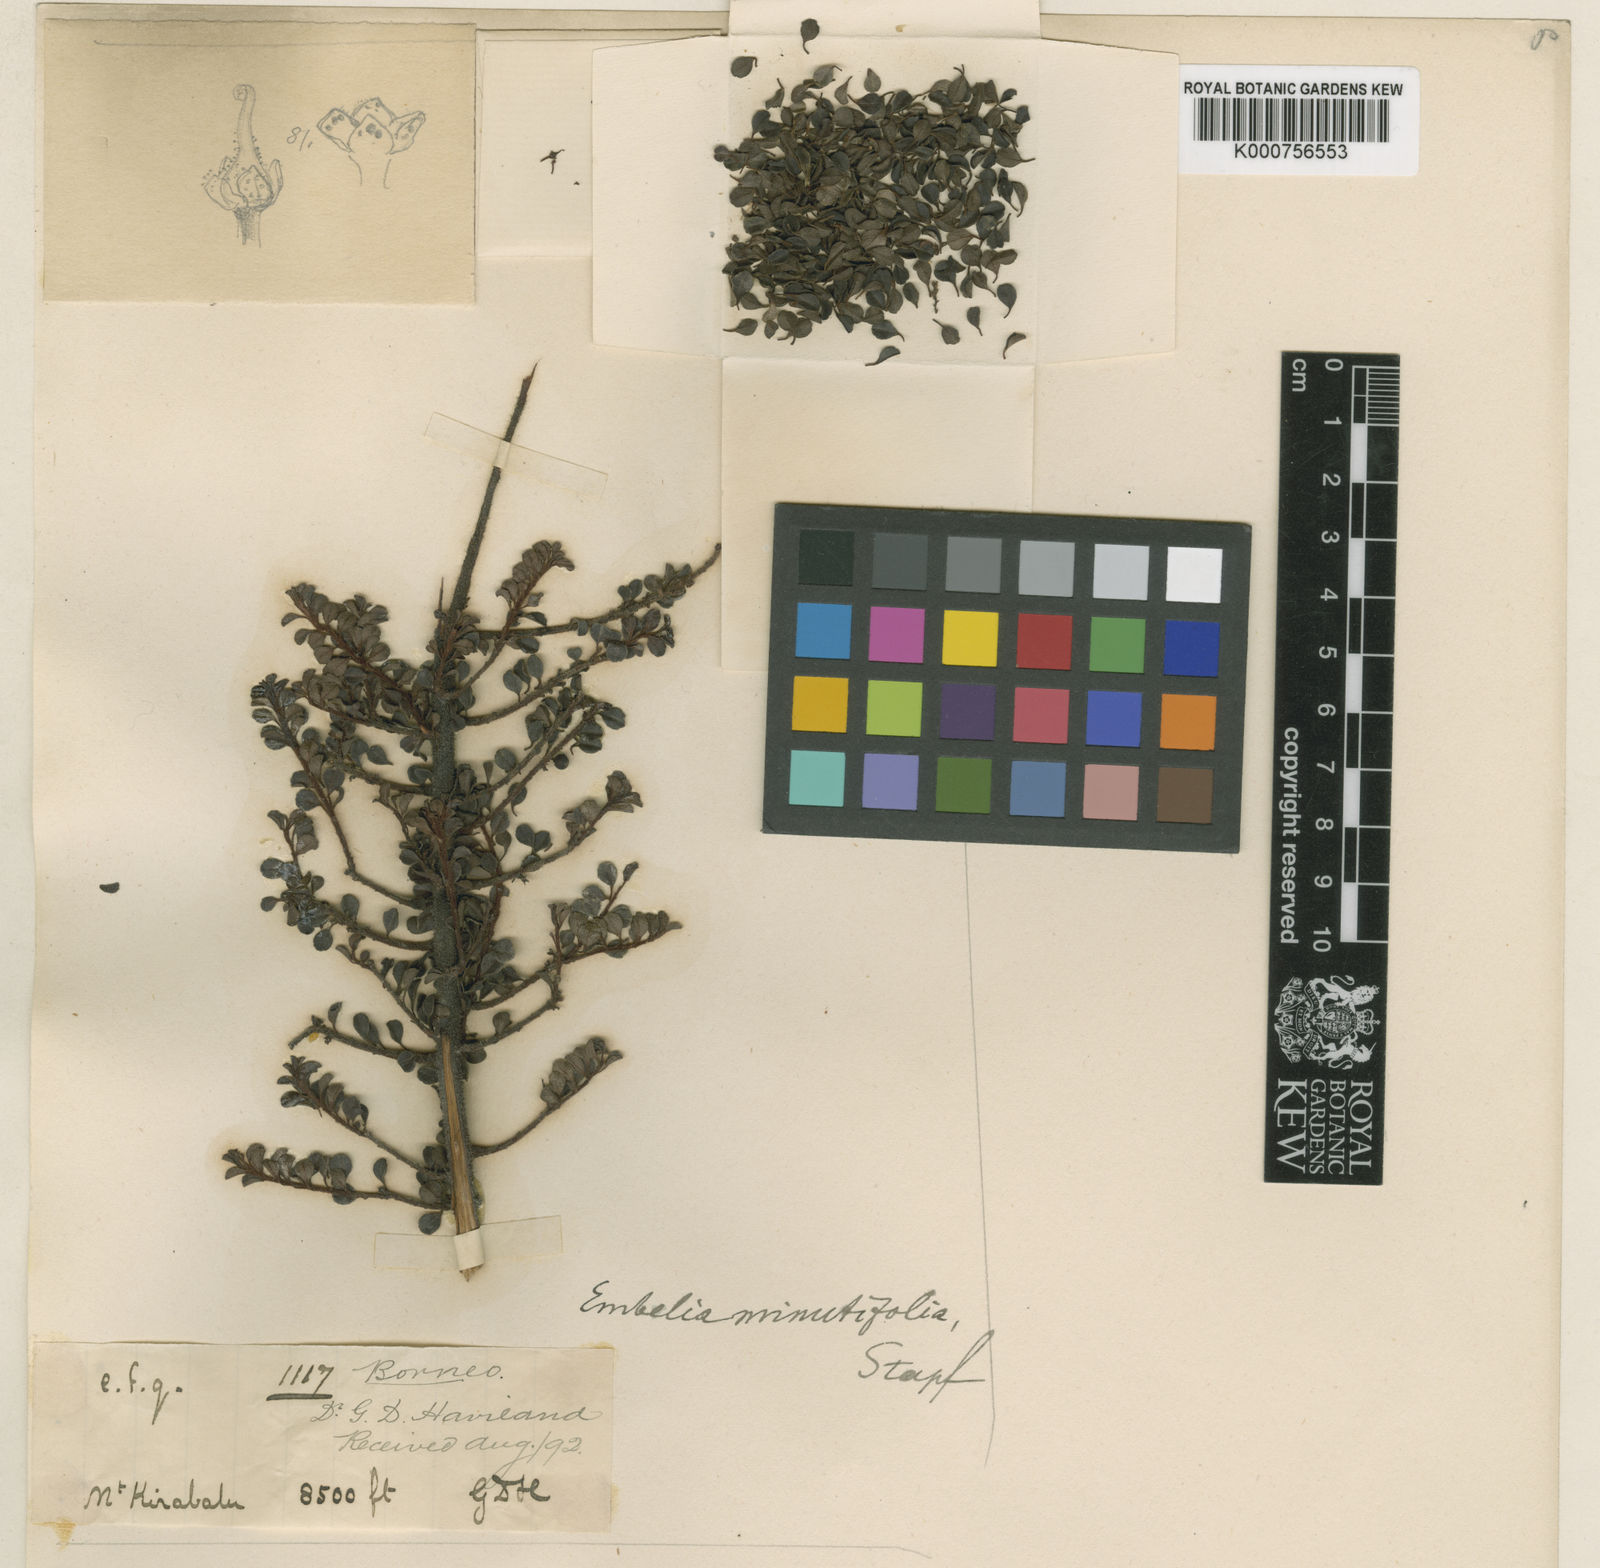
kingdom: Plantae
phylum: Tracheophyta
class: Magnoliopsida
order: Ericales
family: Primulaceae
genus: Embelia
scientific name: Embelia minutifolia
